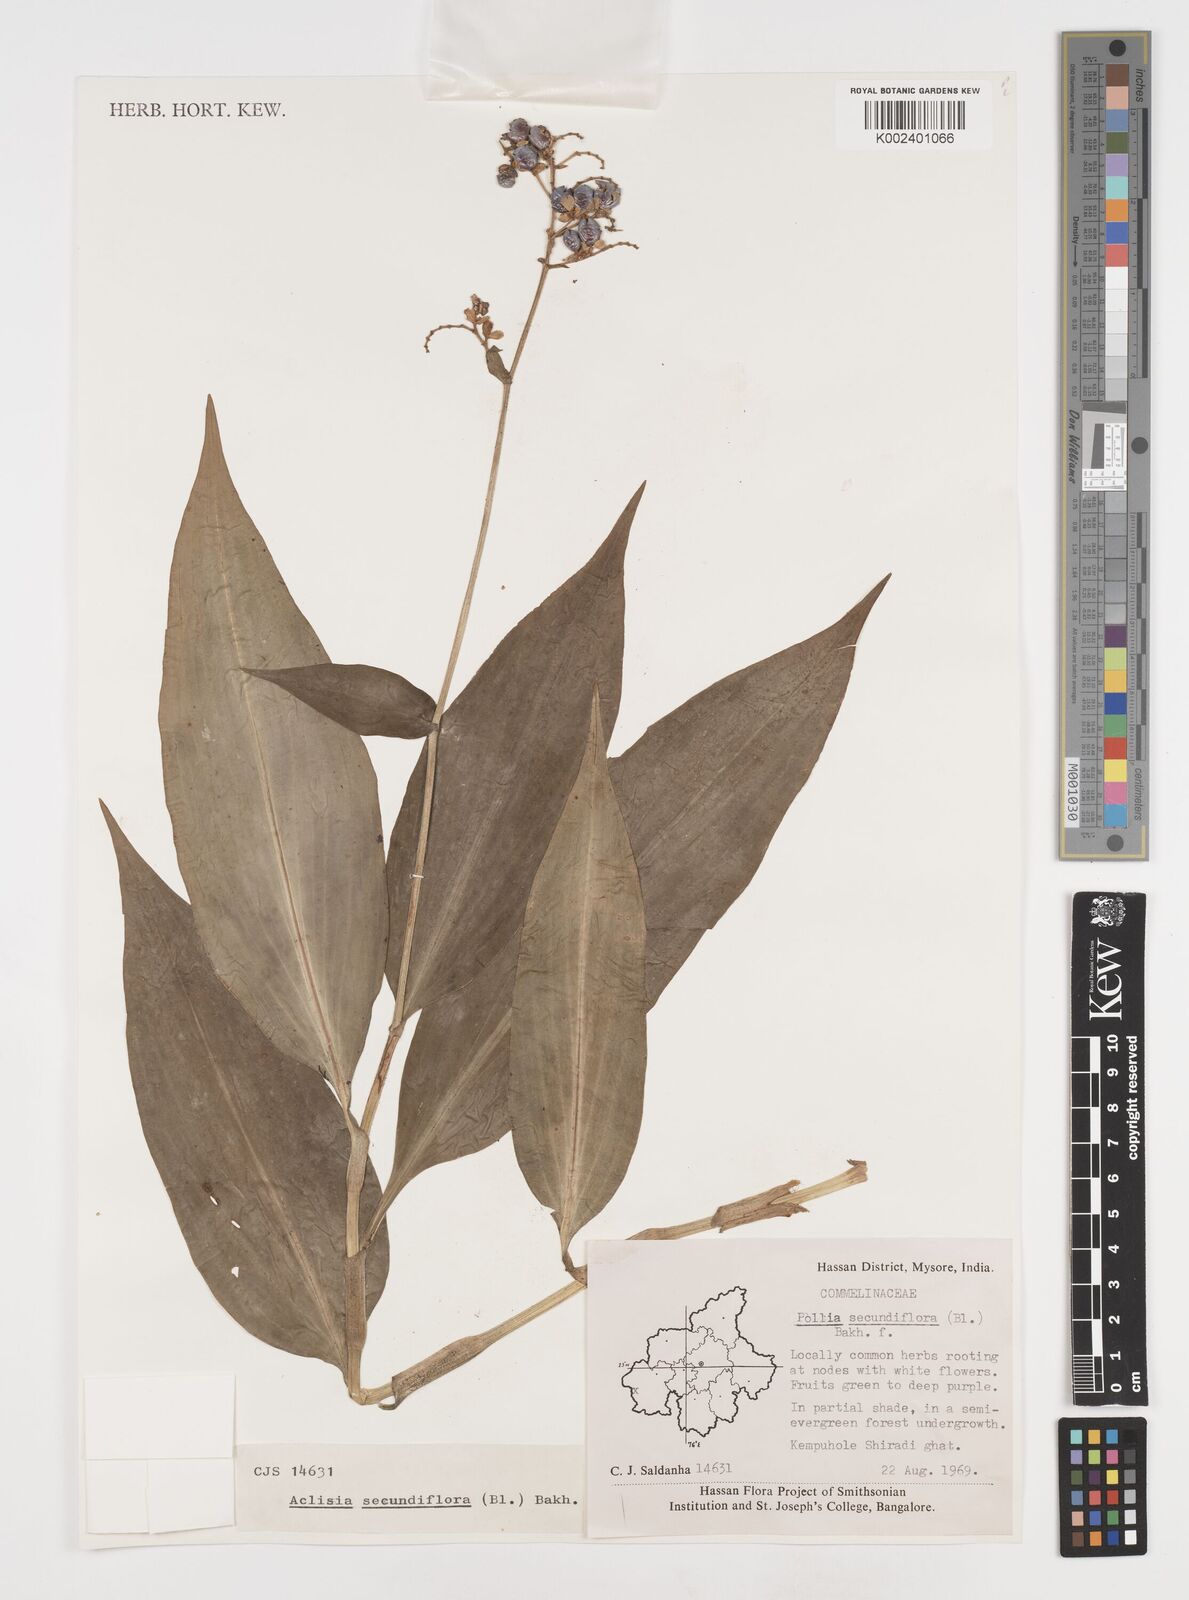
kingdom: Plantae
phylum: Tracheophyta
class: Liliopsida
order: Commelinales
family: Commelinaceae
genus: Pollia
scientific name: Pollia secundiflora
